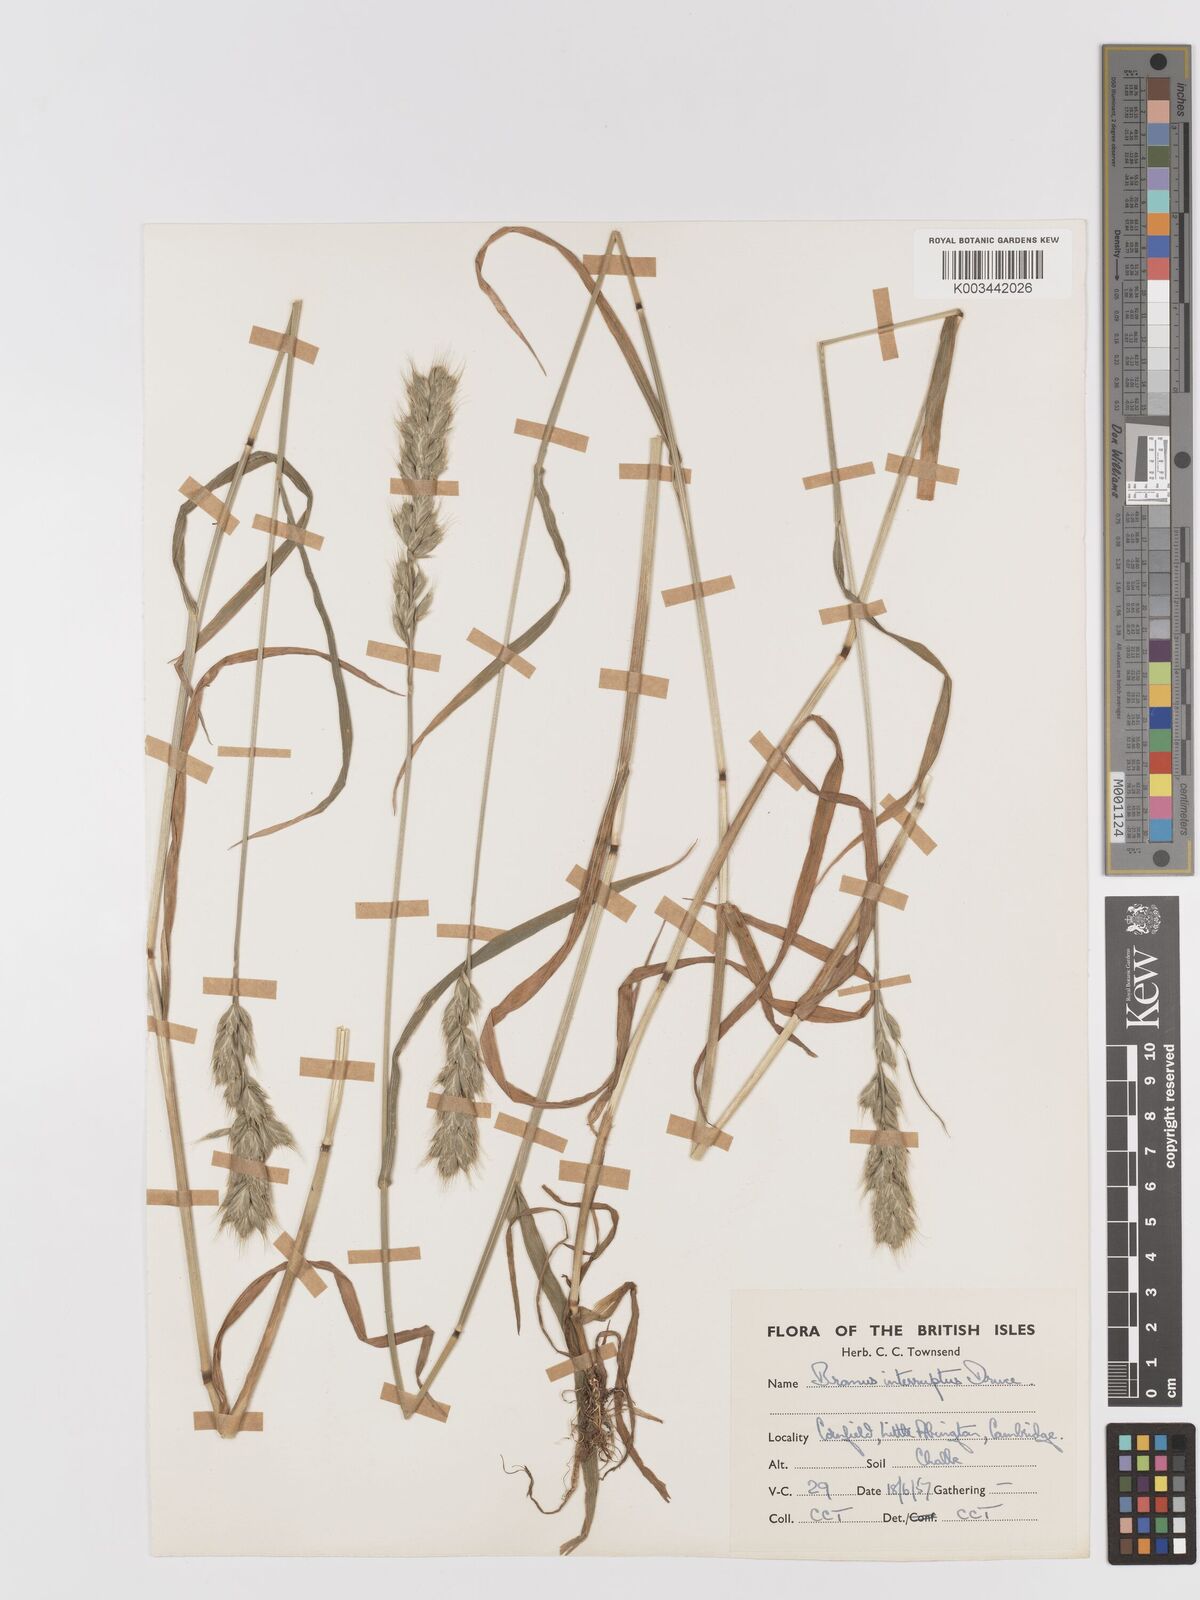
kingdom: Plantae
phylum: Tracheophyta
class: Liliopsida
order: Poales
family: Poaceae
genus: Bromus
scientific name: Bromus interruptus
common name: Interrupted brome
